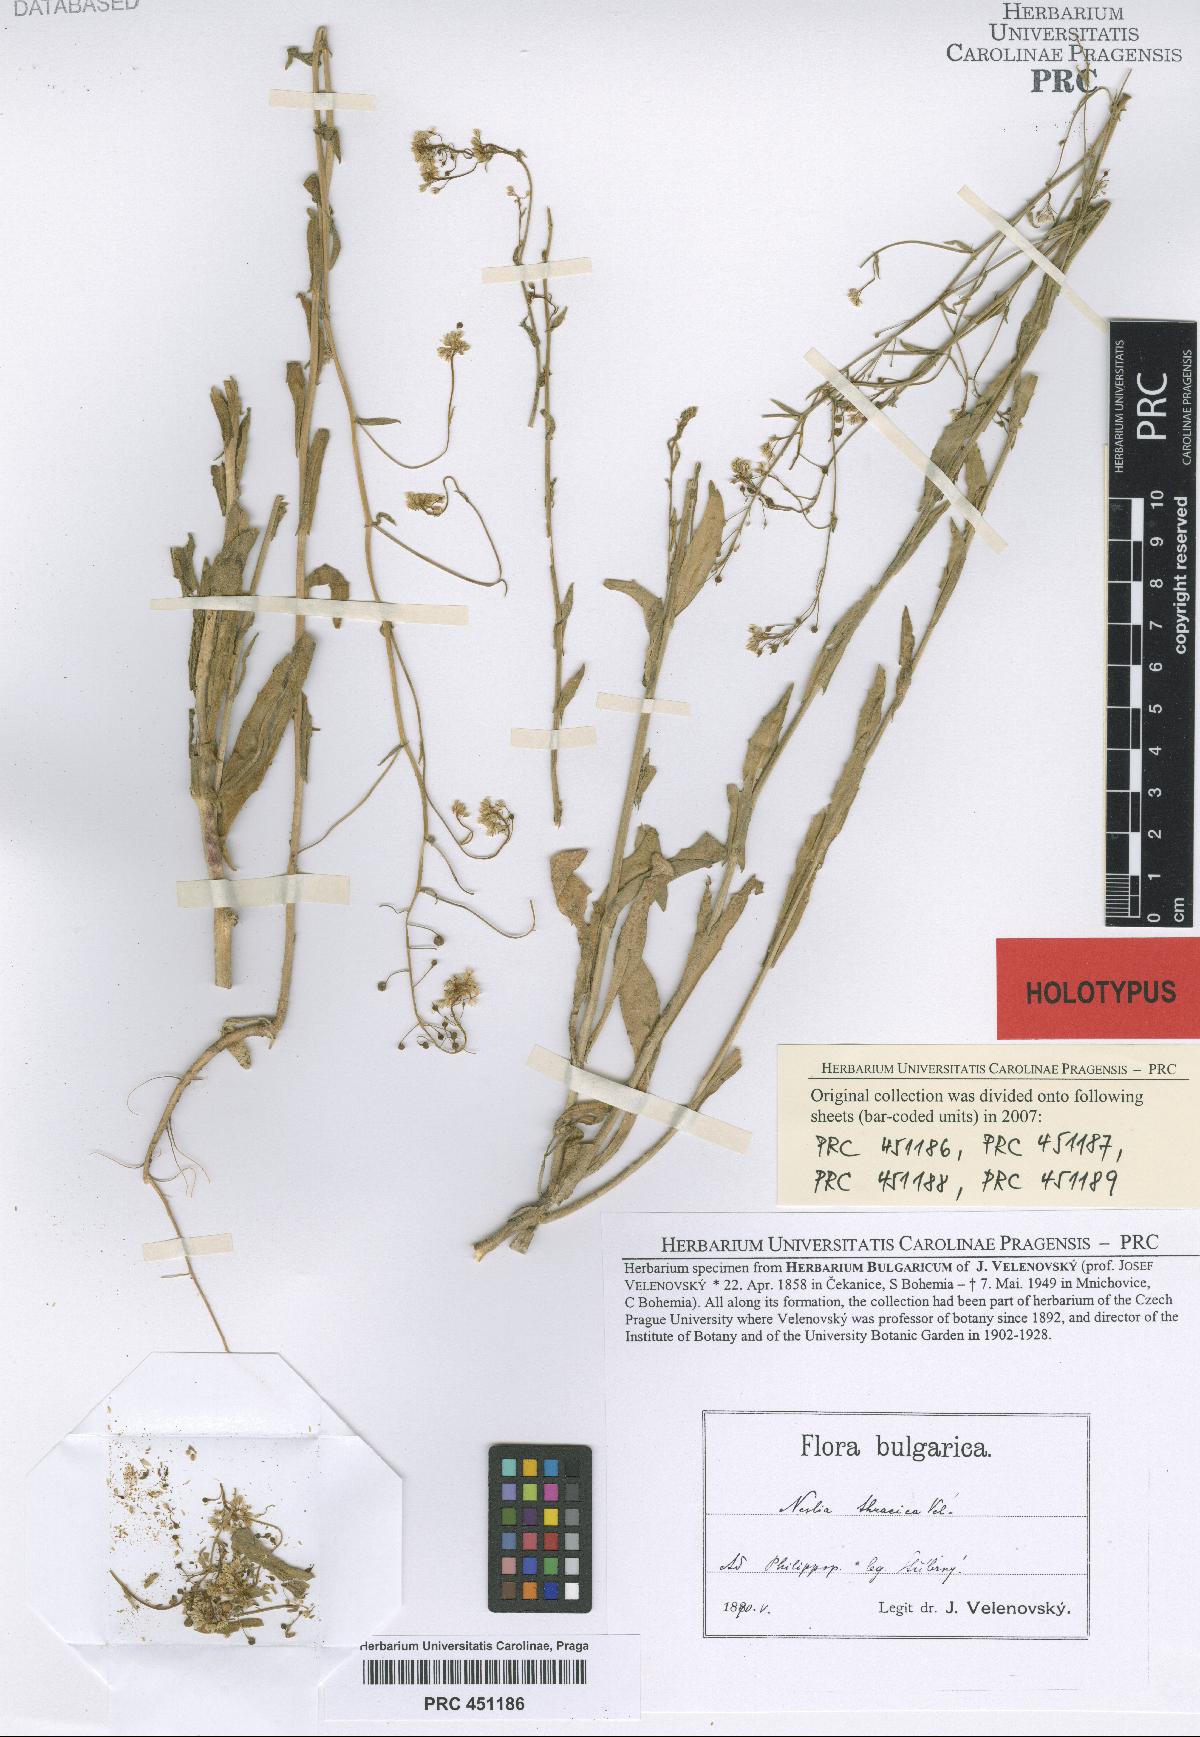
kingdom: Plantae
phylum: Tracheophyta
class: Magnoliopsida
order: Brassicales
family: Brassicaceae
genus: Neslia
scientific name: Neslia paniculata
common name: Ball mustard
